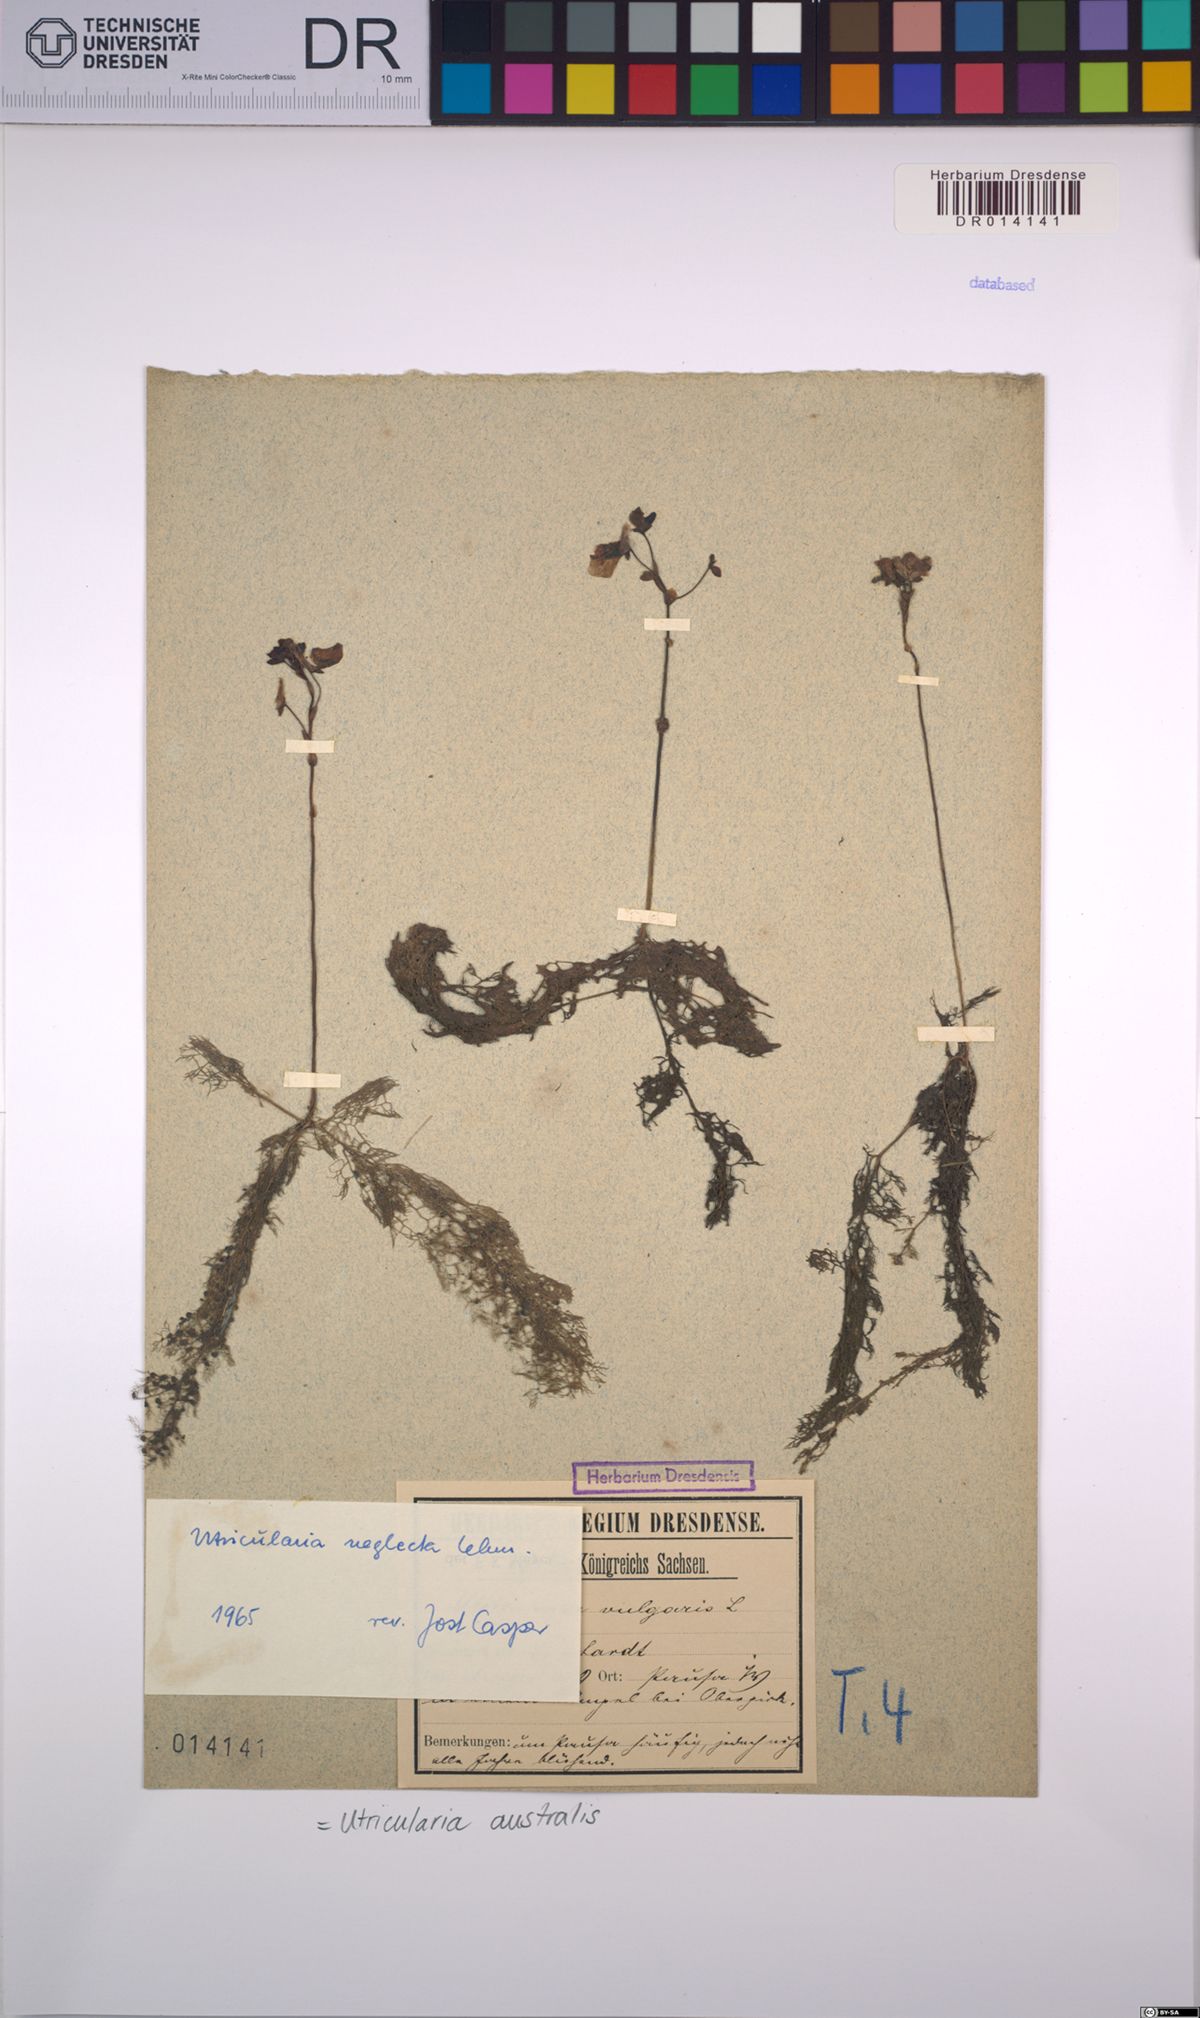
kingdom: Plantae
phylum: Tracheophyta
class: Magnoliopsida
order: Lamiales
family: Lentibulariaceae
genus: Utricularia
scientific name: Utricularia australis
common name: Bladderwort
